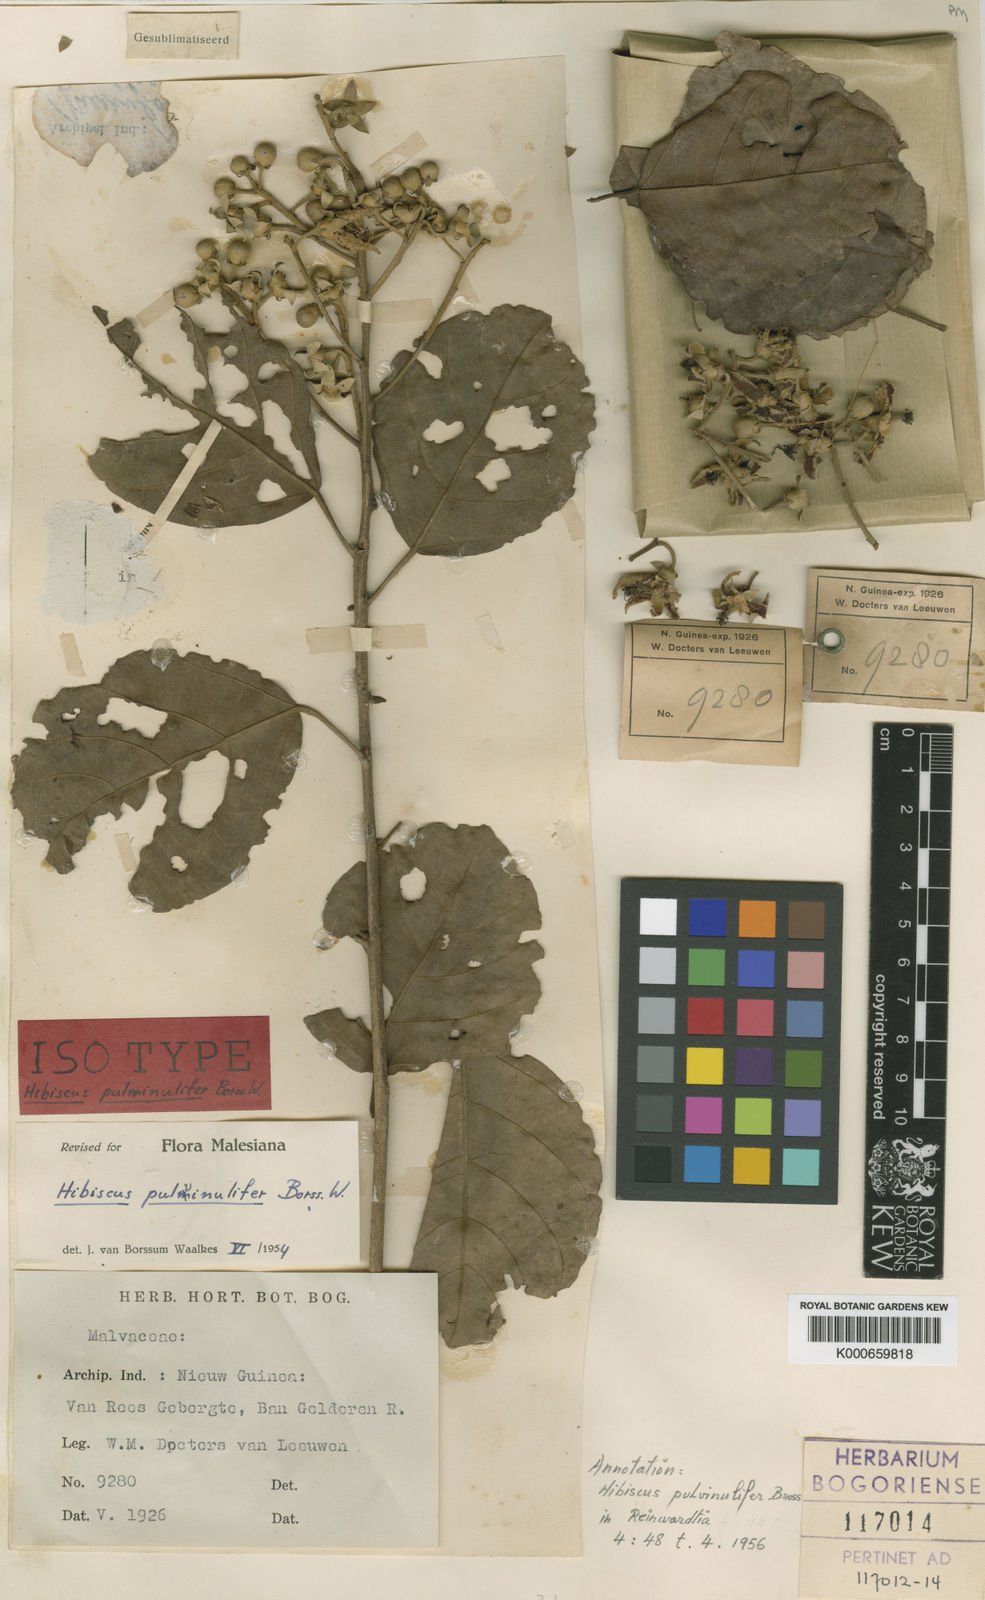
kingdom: Plantae
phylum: Tracheophyta
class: Magnoliopsida
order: Malvales
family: Malvaceae
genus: Hibiscus
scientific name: Hibiscus pulvinulifer
